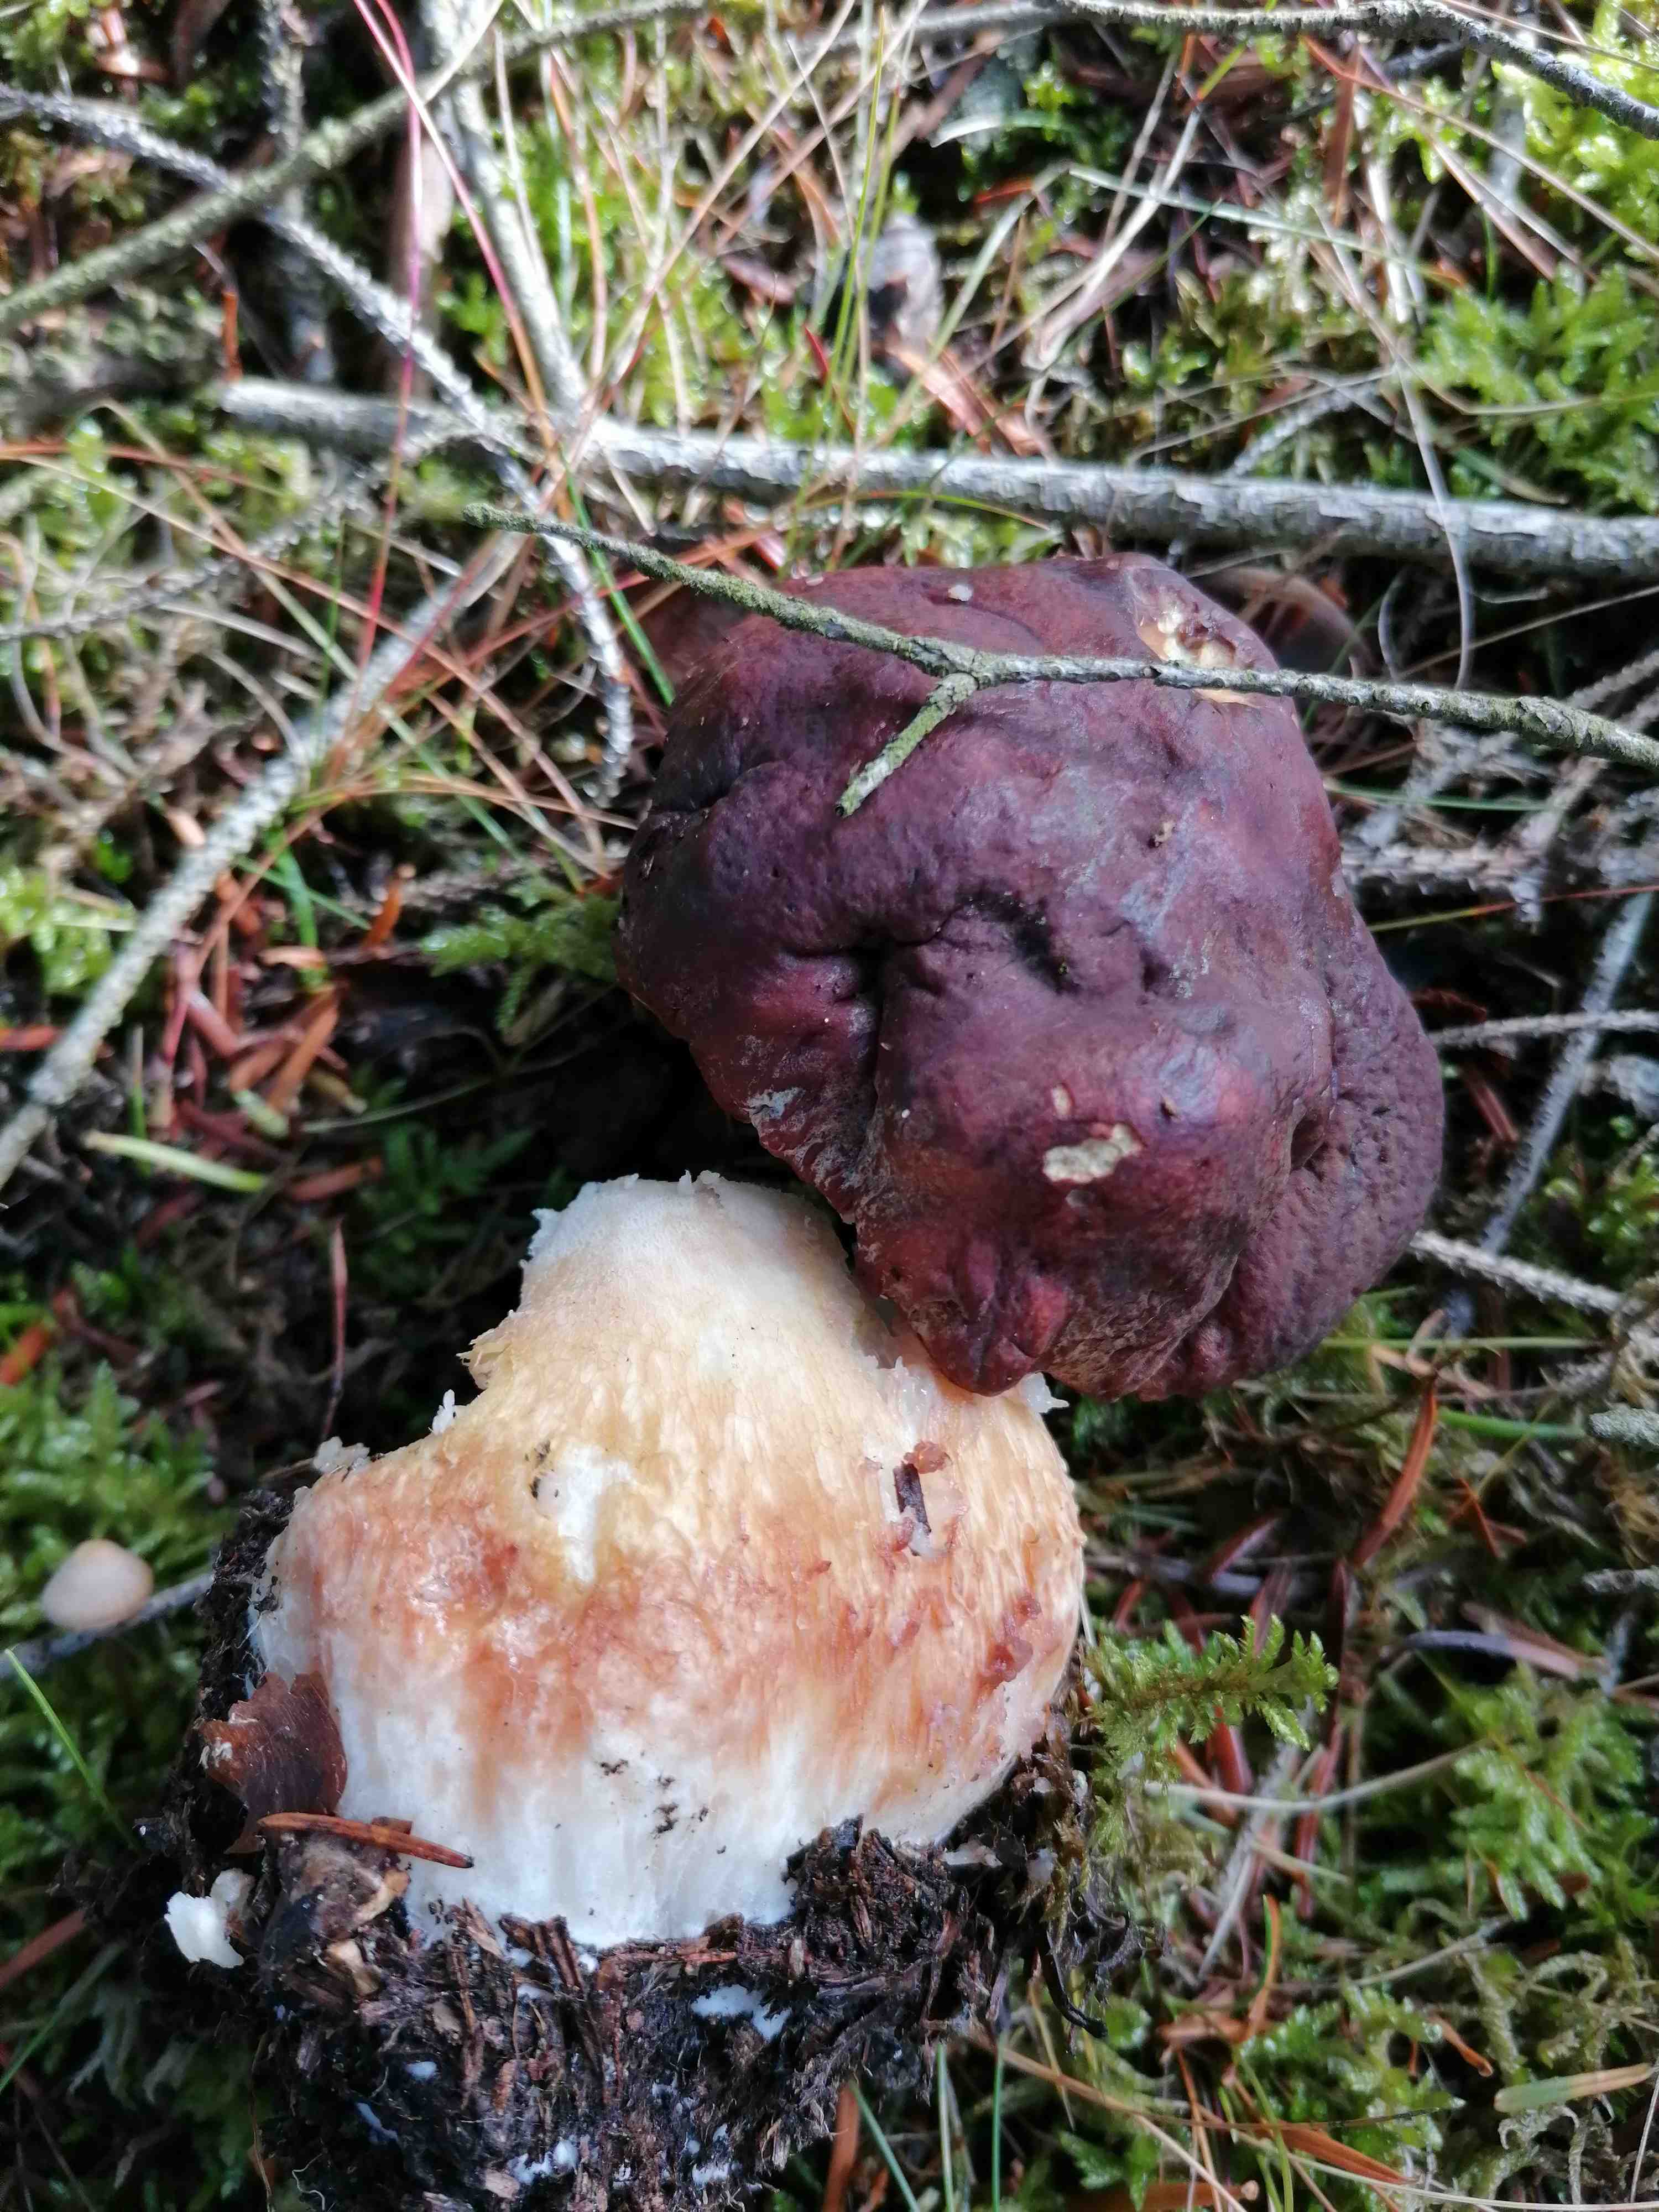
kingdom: Fungi
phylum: Basidiomycota
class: Agaricomycetes
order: Boletales
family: Boletaceae
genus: Boletus
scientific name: Boletus pinophilus
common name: rødbrun rørhat
